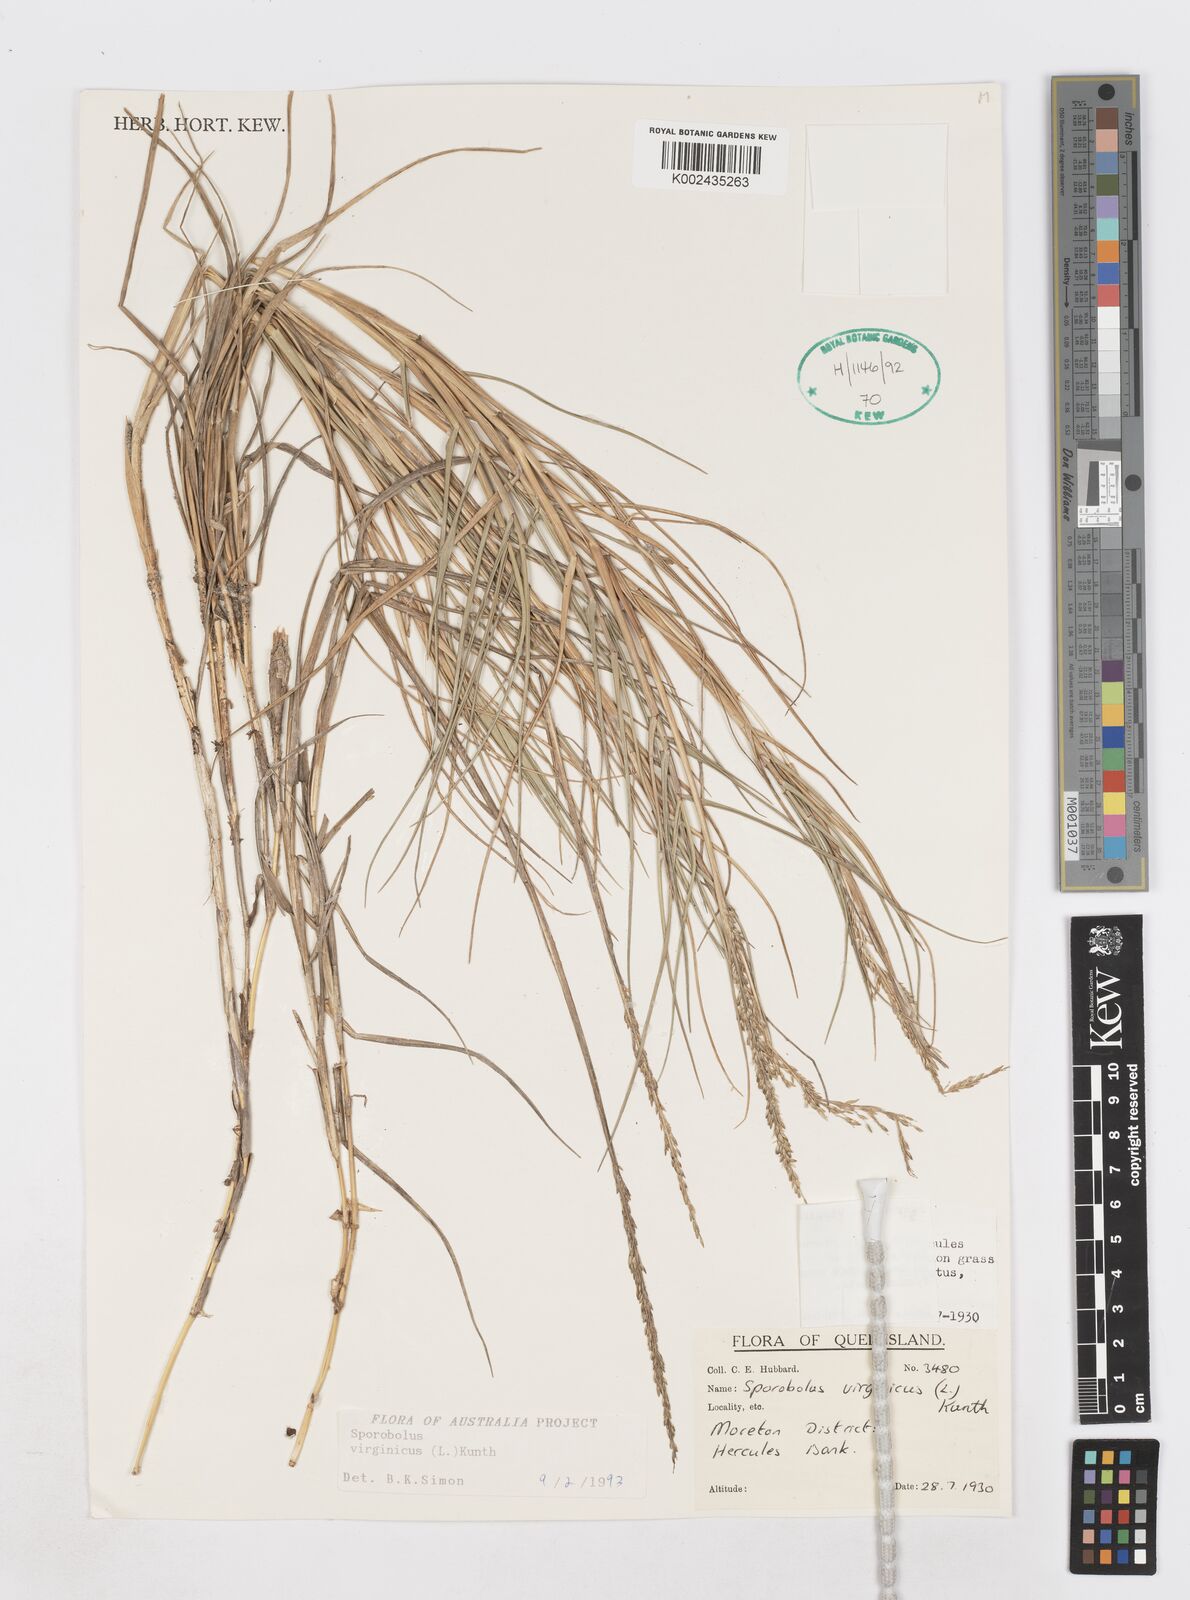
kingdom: Plantae
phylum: Tracheophyta
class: Liliopsida
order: Poales
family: Poaceae
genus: Sporobolus
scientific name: Sporobolus virginicus
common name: Beach dropseed
